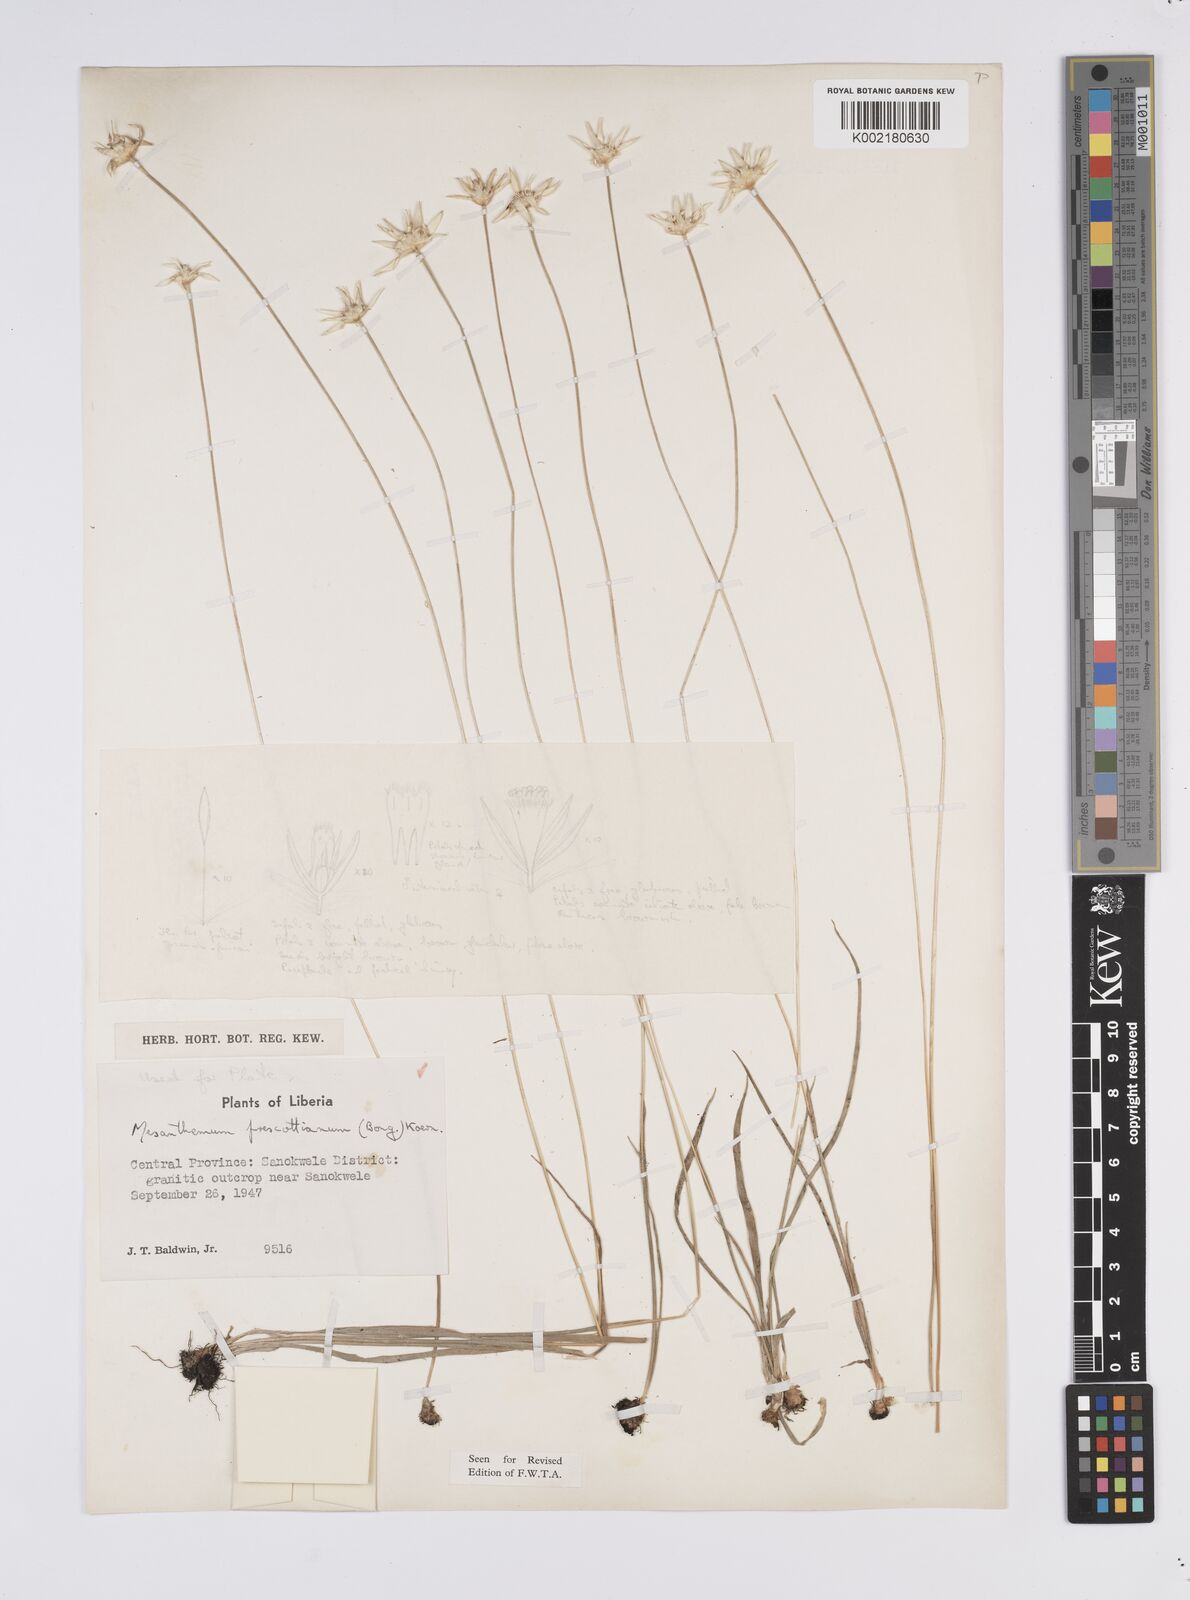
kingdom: Plantae
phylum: Tracheophyta
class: Liliopsida
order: Poales
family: Eriocaulaceae
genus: Mesanthemum
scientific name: Mesanthemum prescottianum
